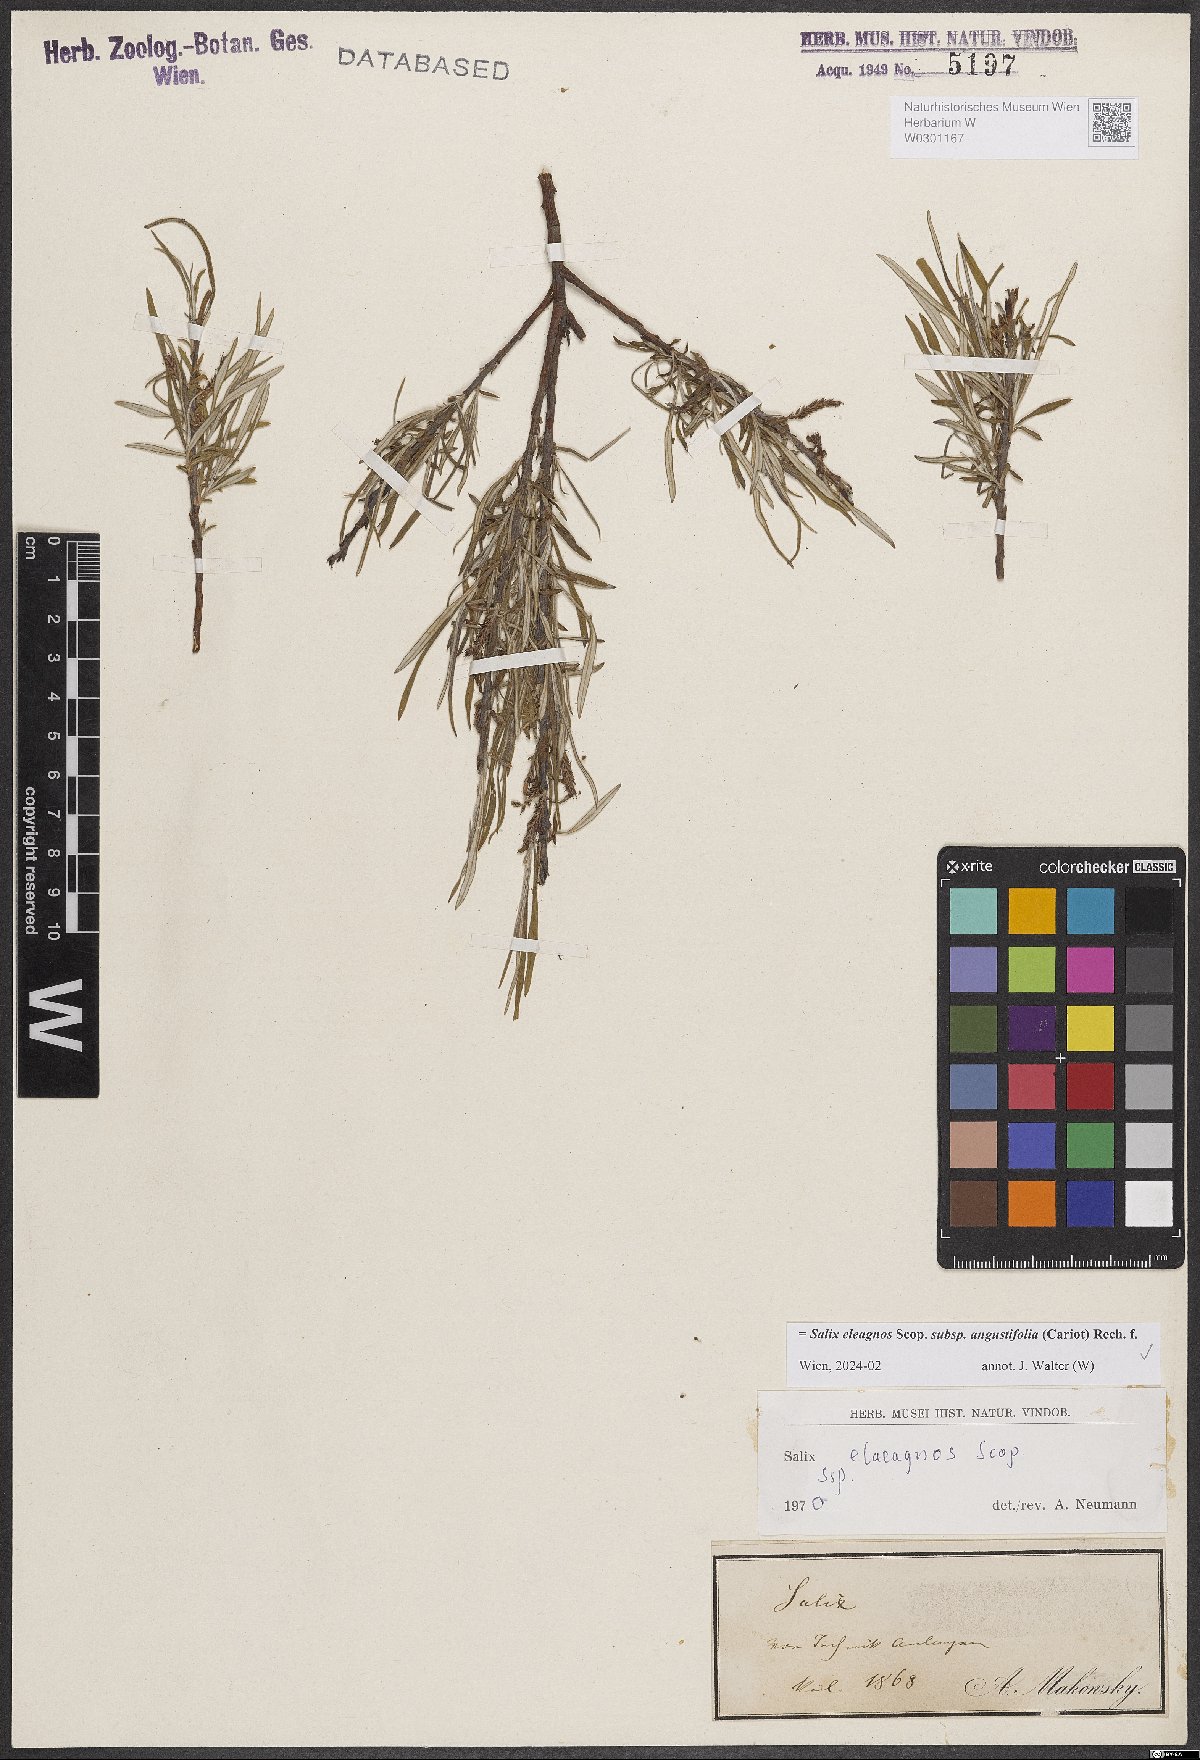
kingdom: Plantae
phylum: Tracheophyta
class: Magnoliopsida
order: Malpighiales
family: Salicaceae
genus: Salix
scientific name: Salix eleagnos
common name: Elaeagnus willow
